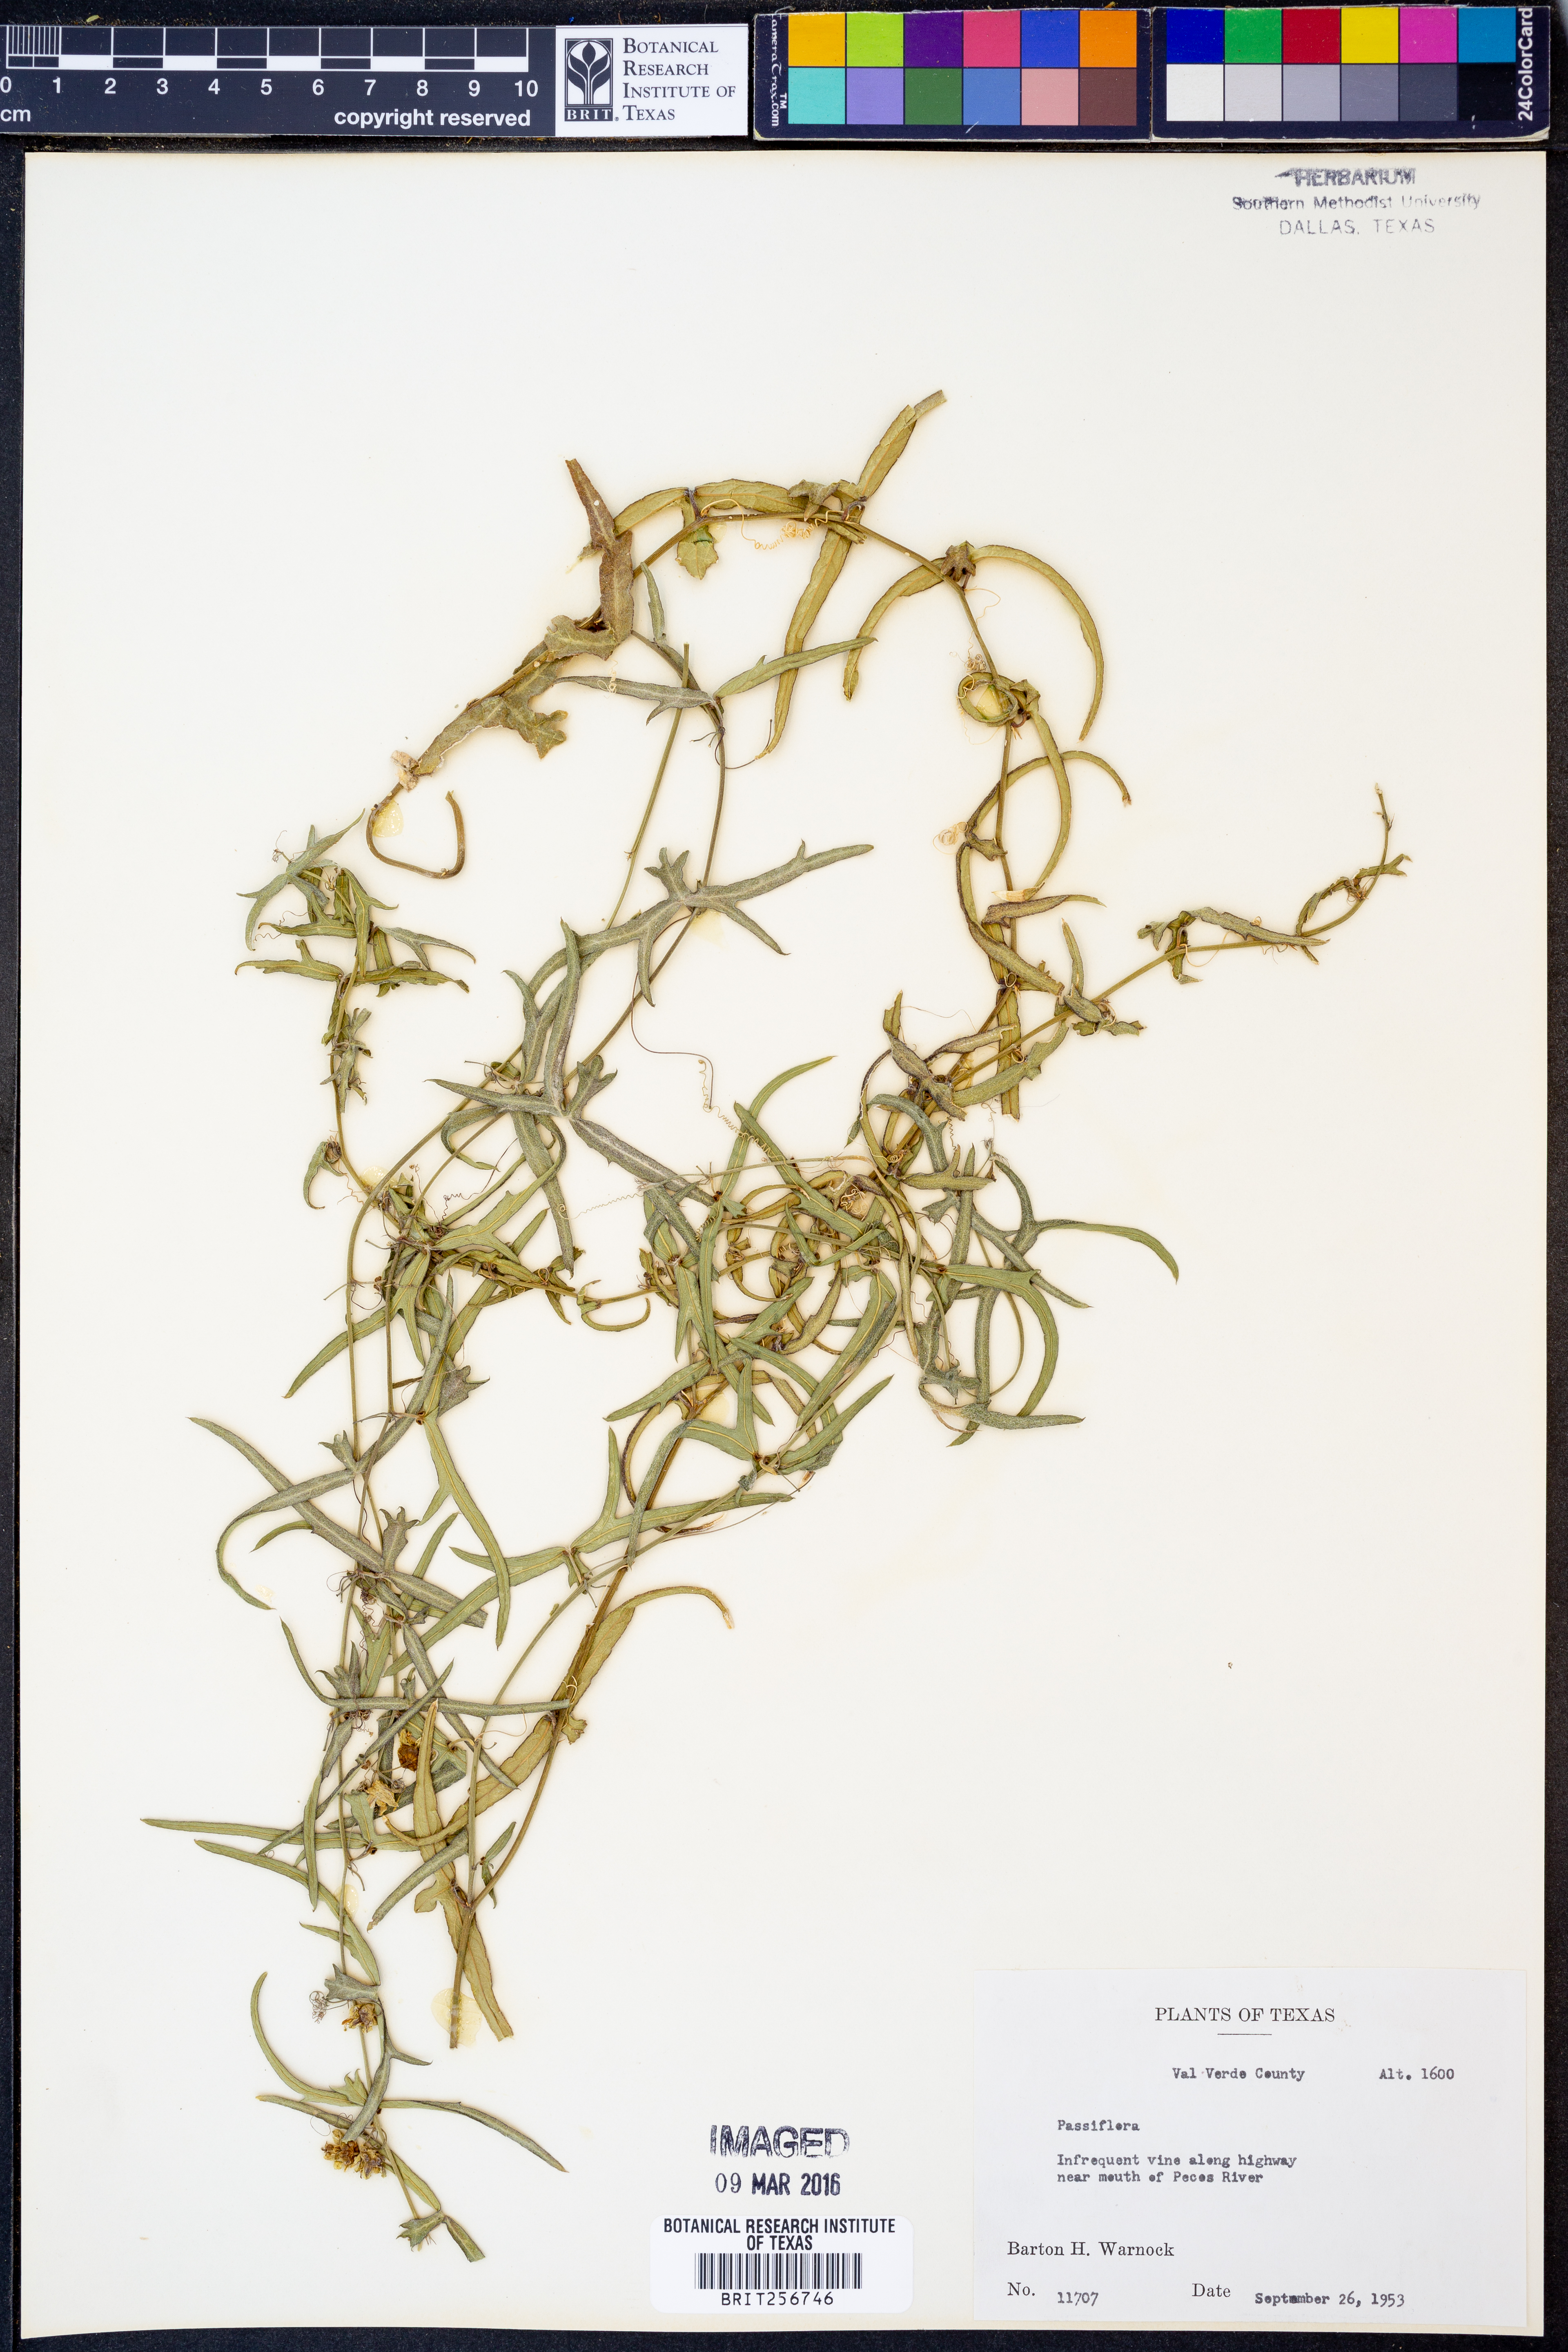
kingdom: Plantae
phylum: Tracheophyta
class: Magnoliopsida
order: Malpighiales
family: Passifloraceae
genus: Passiflora
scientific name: Passiflora
